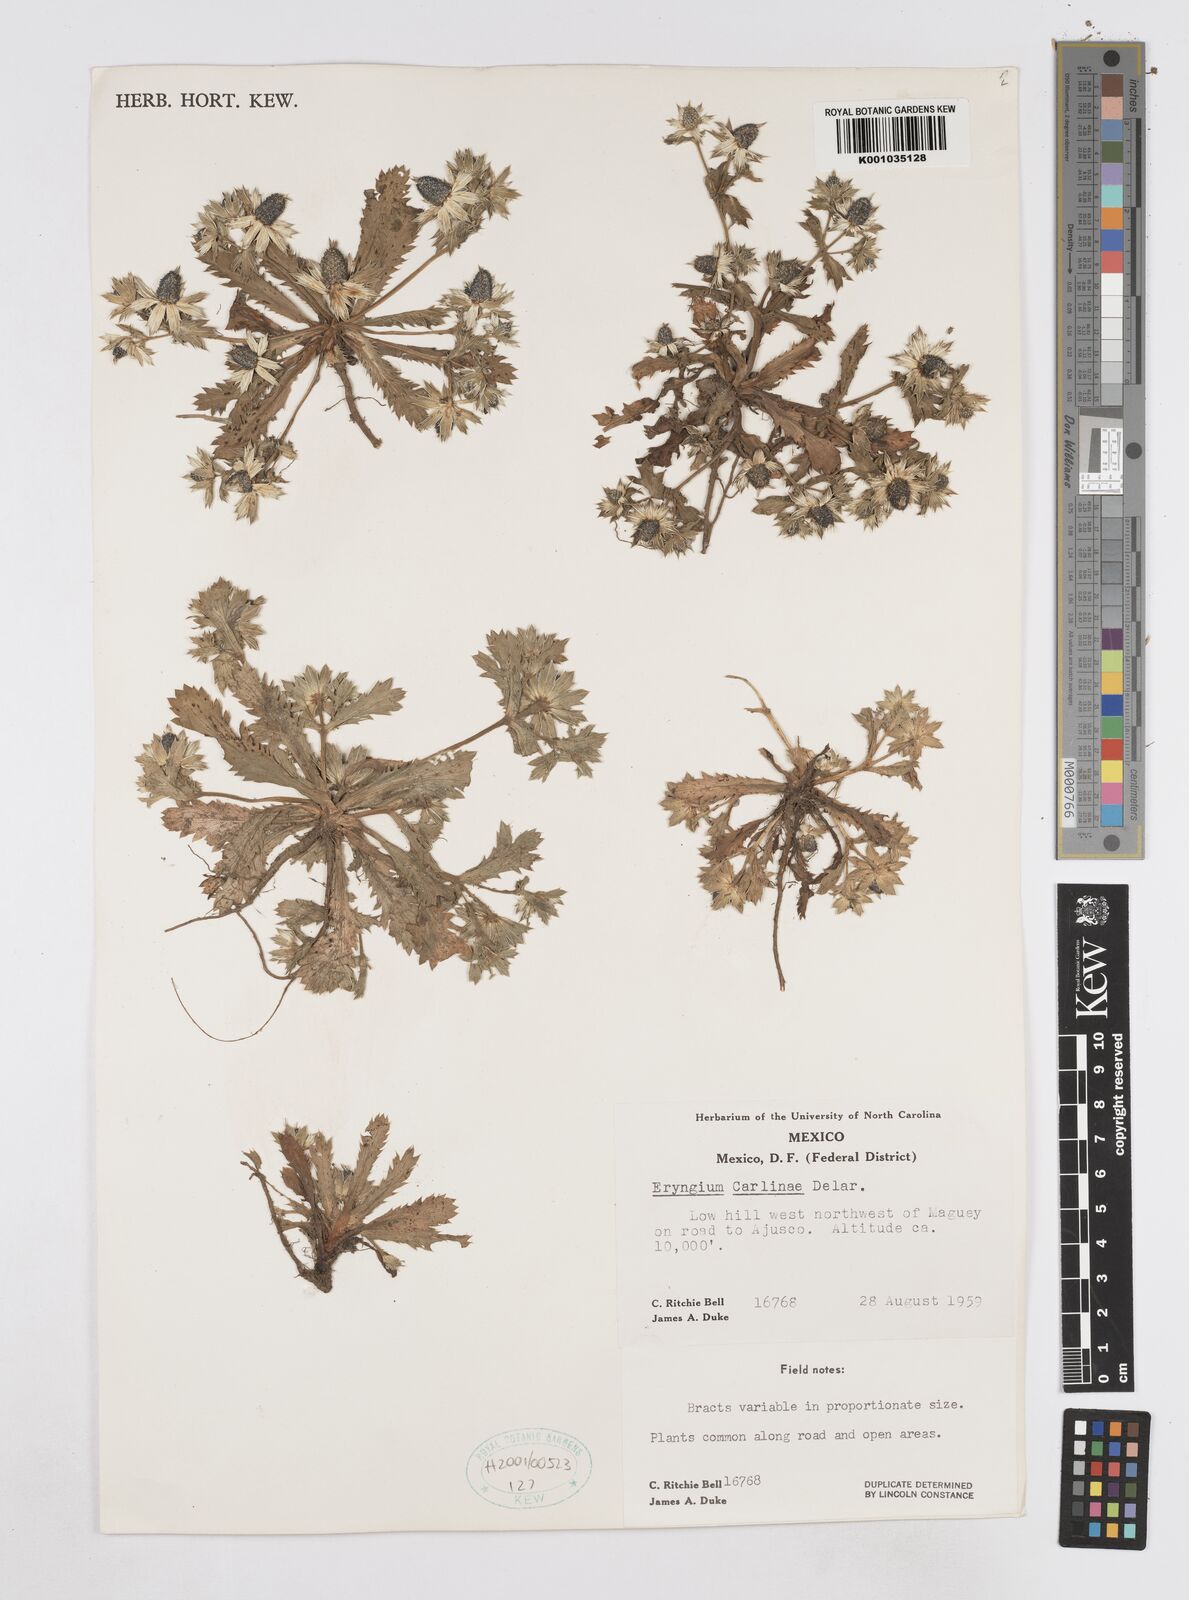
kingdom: Plantae
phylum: Tracheophyta
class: Magnoliopsida
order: Apiales
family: Apiaceae
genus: Eryngium
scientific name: Eryngium carlinae
